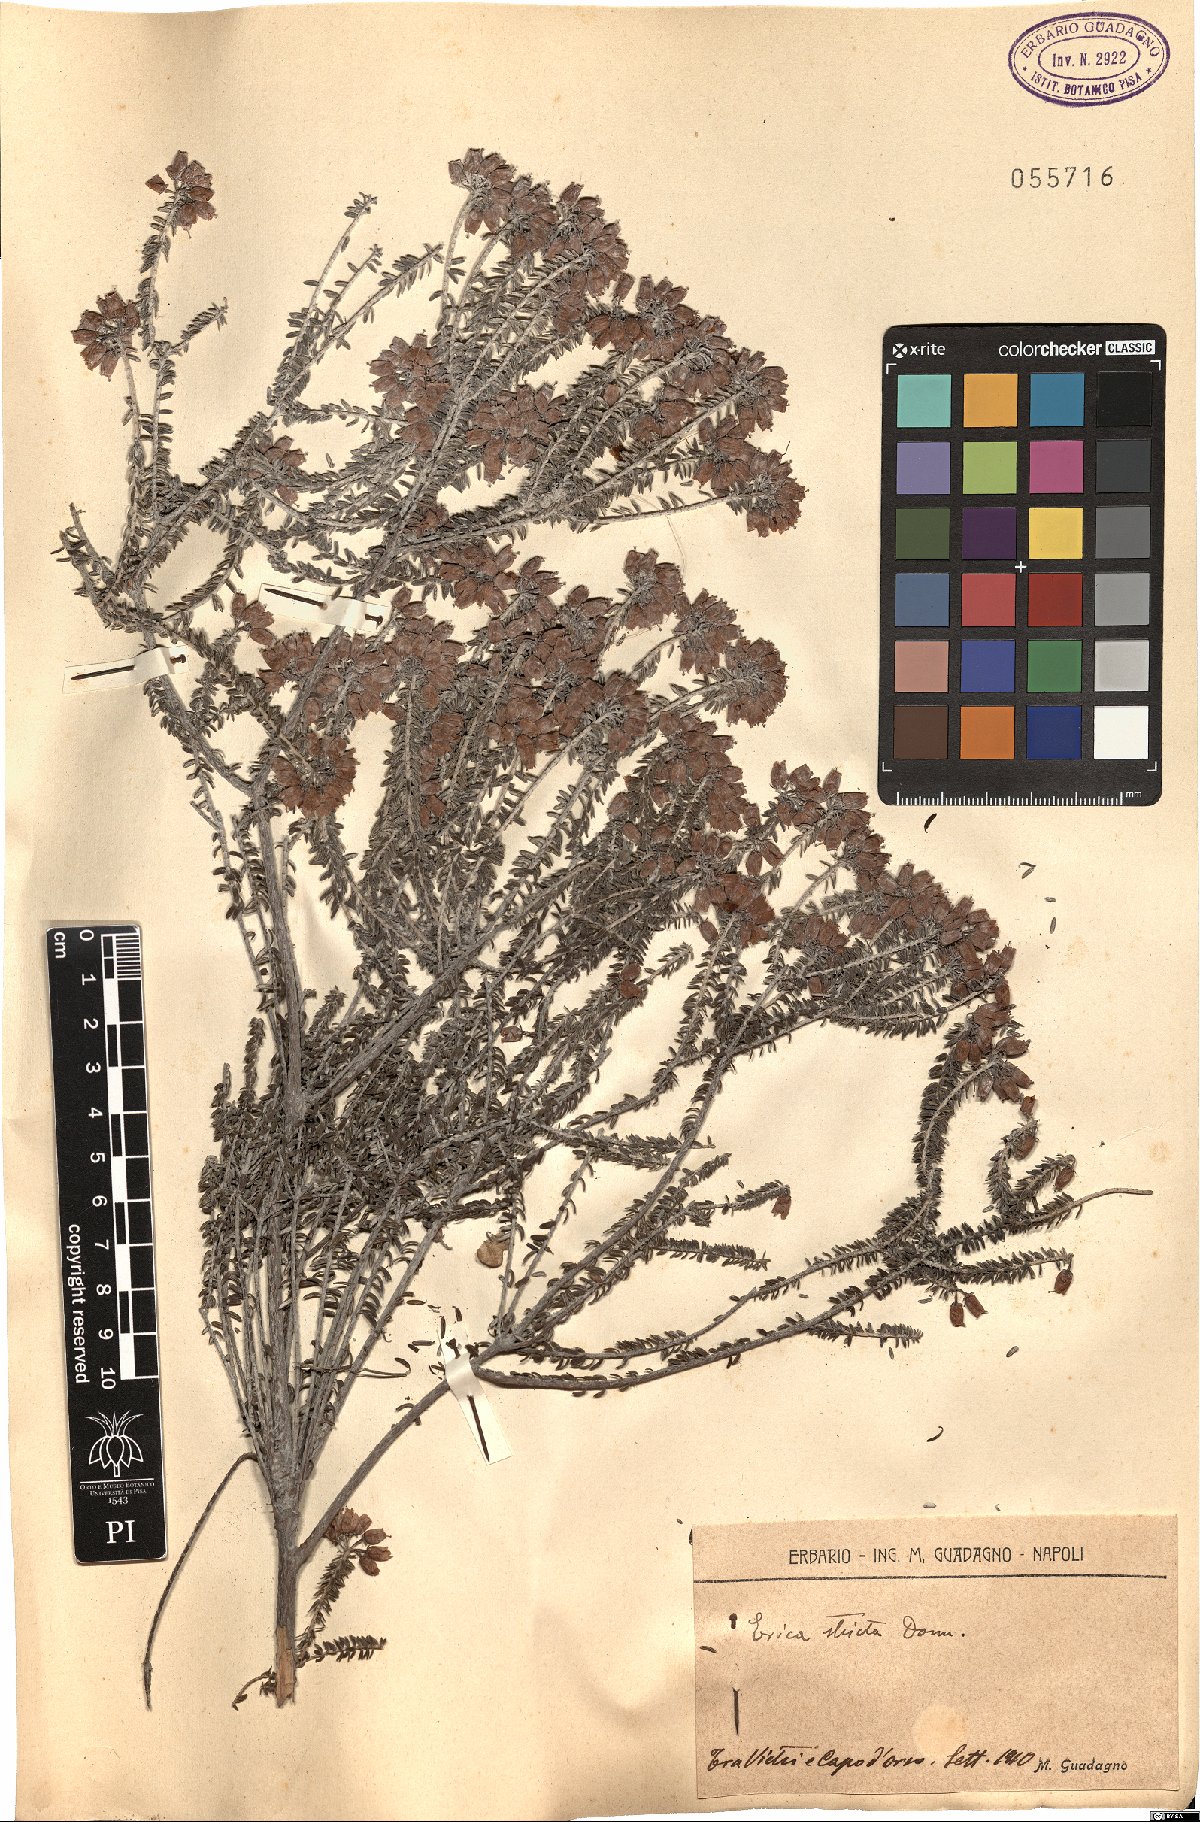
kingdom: Plantae
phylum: Tracheophyta
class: Magnoliopsida
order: Ericales
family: Ericaceae
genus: Erica
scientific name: Erica terminalis
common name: Corsican heath
